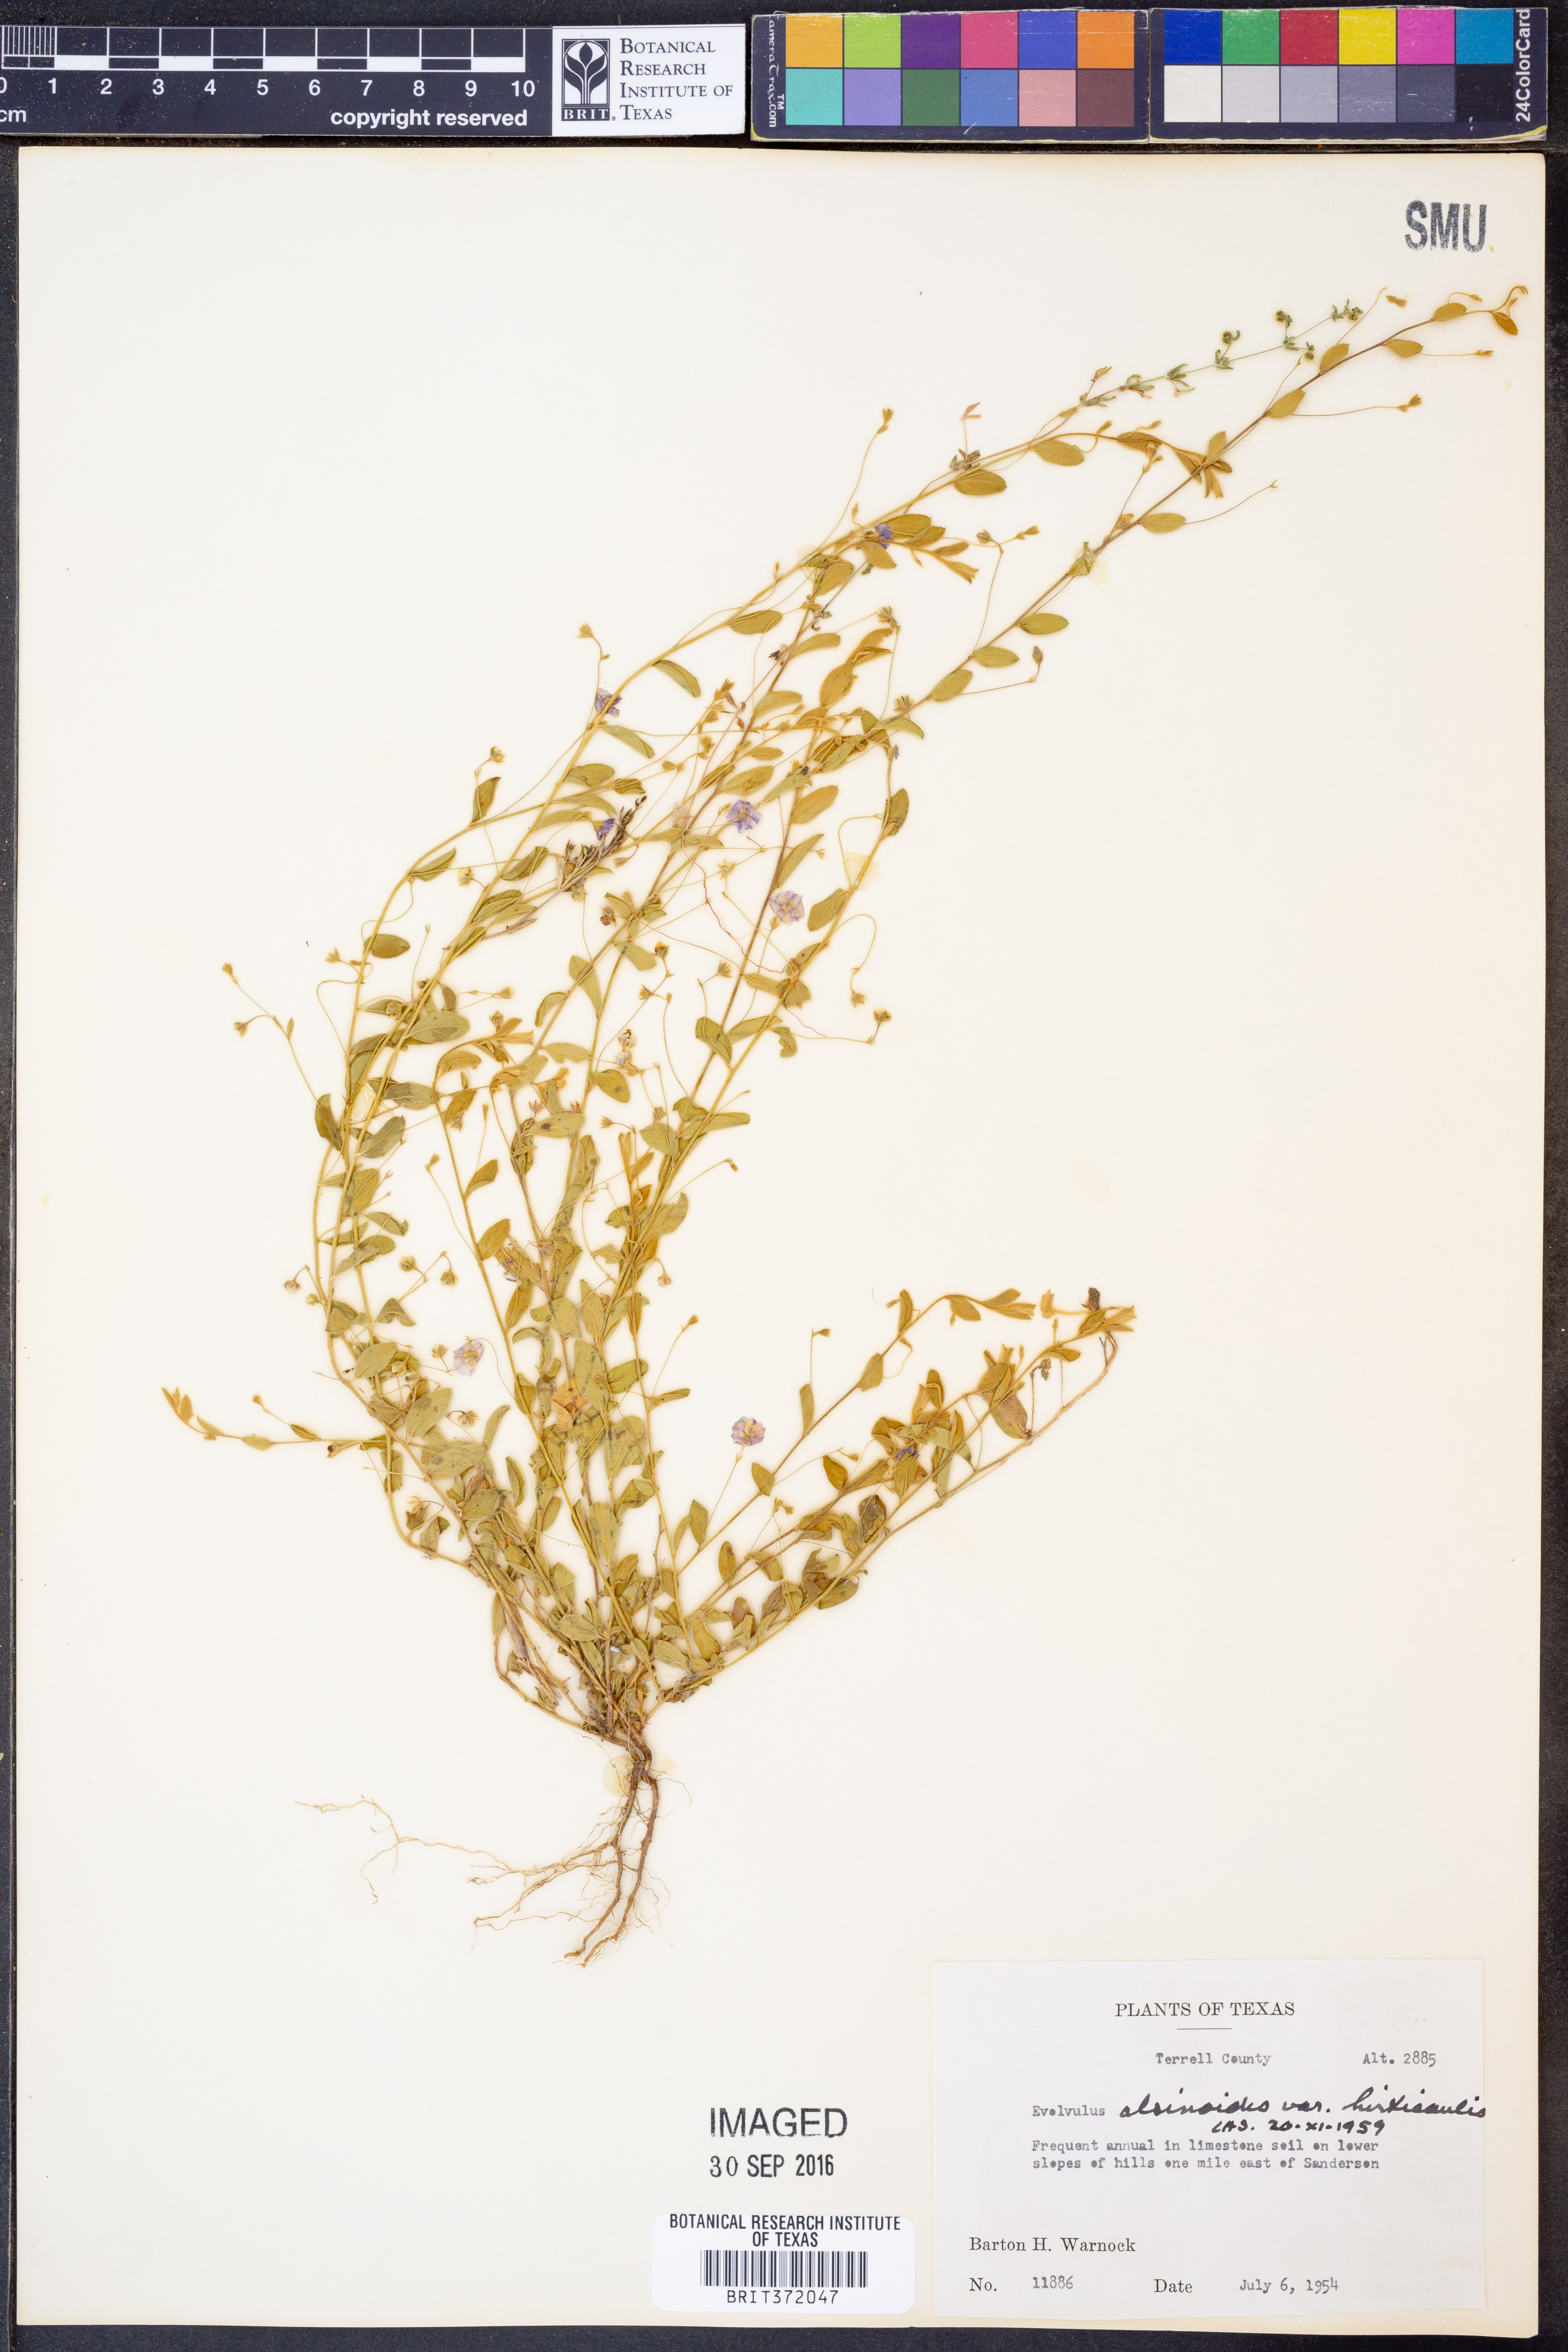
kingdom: Plantae
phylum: Tracheophyta
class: Magnoliopsida
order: Solanales
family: Convolvulaceae
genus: Evolvulus
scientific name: Evolvulus alsinoides
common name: Slender dwarf morning-glory
